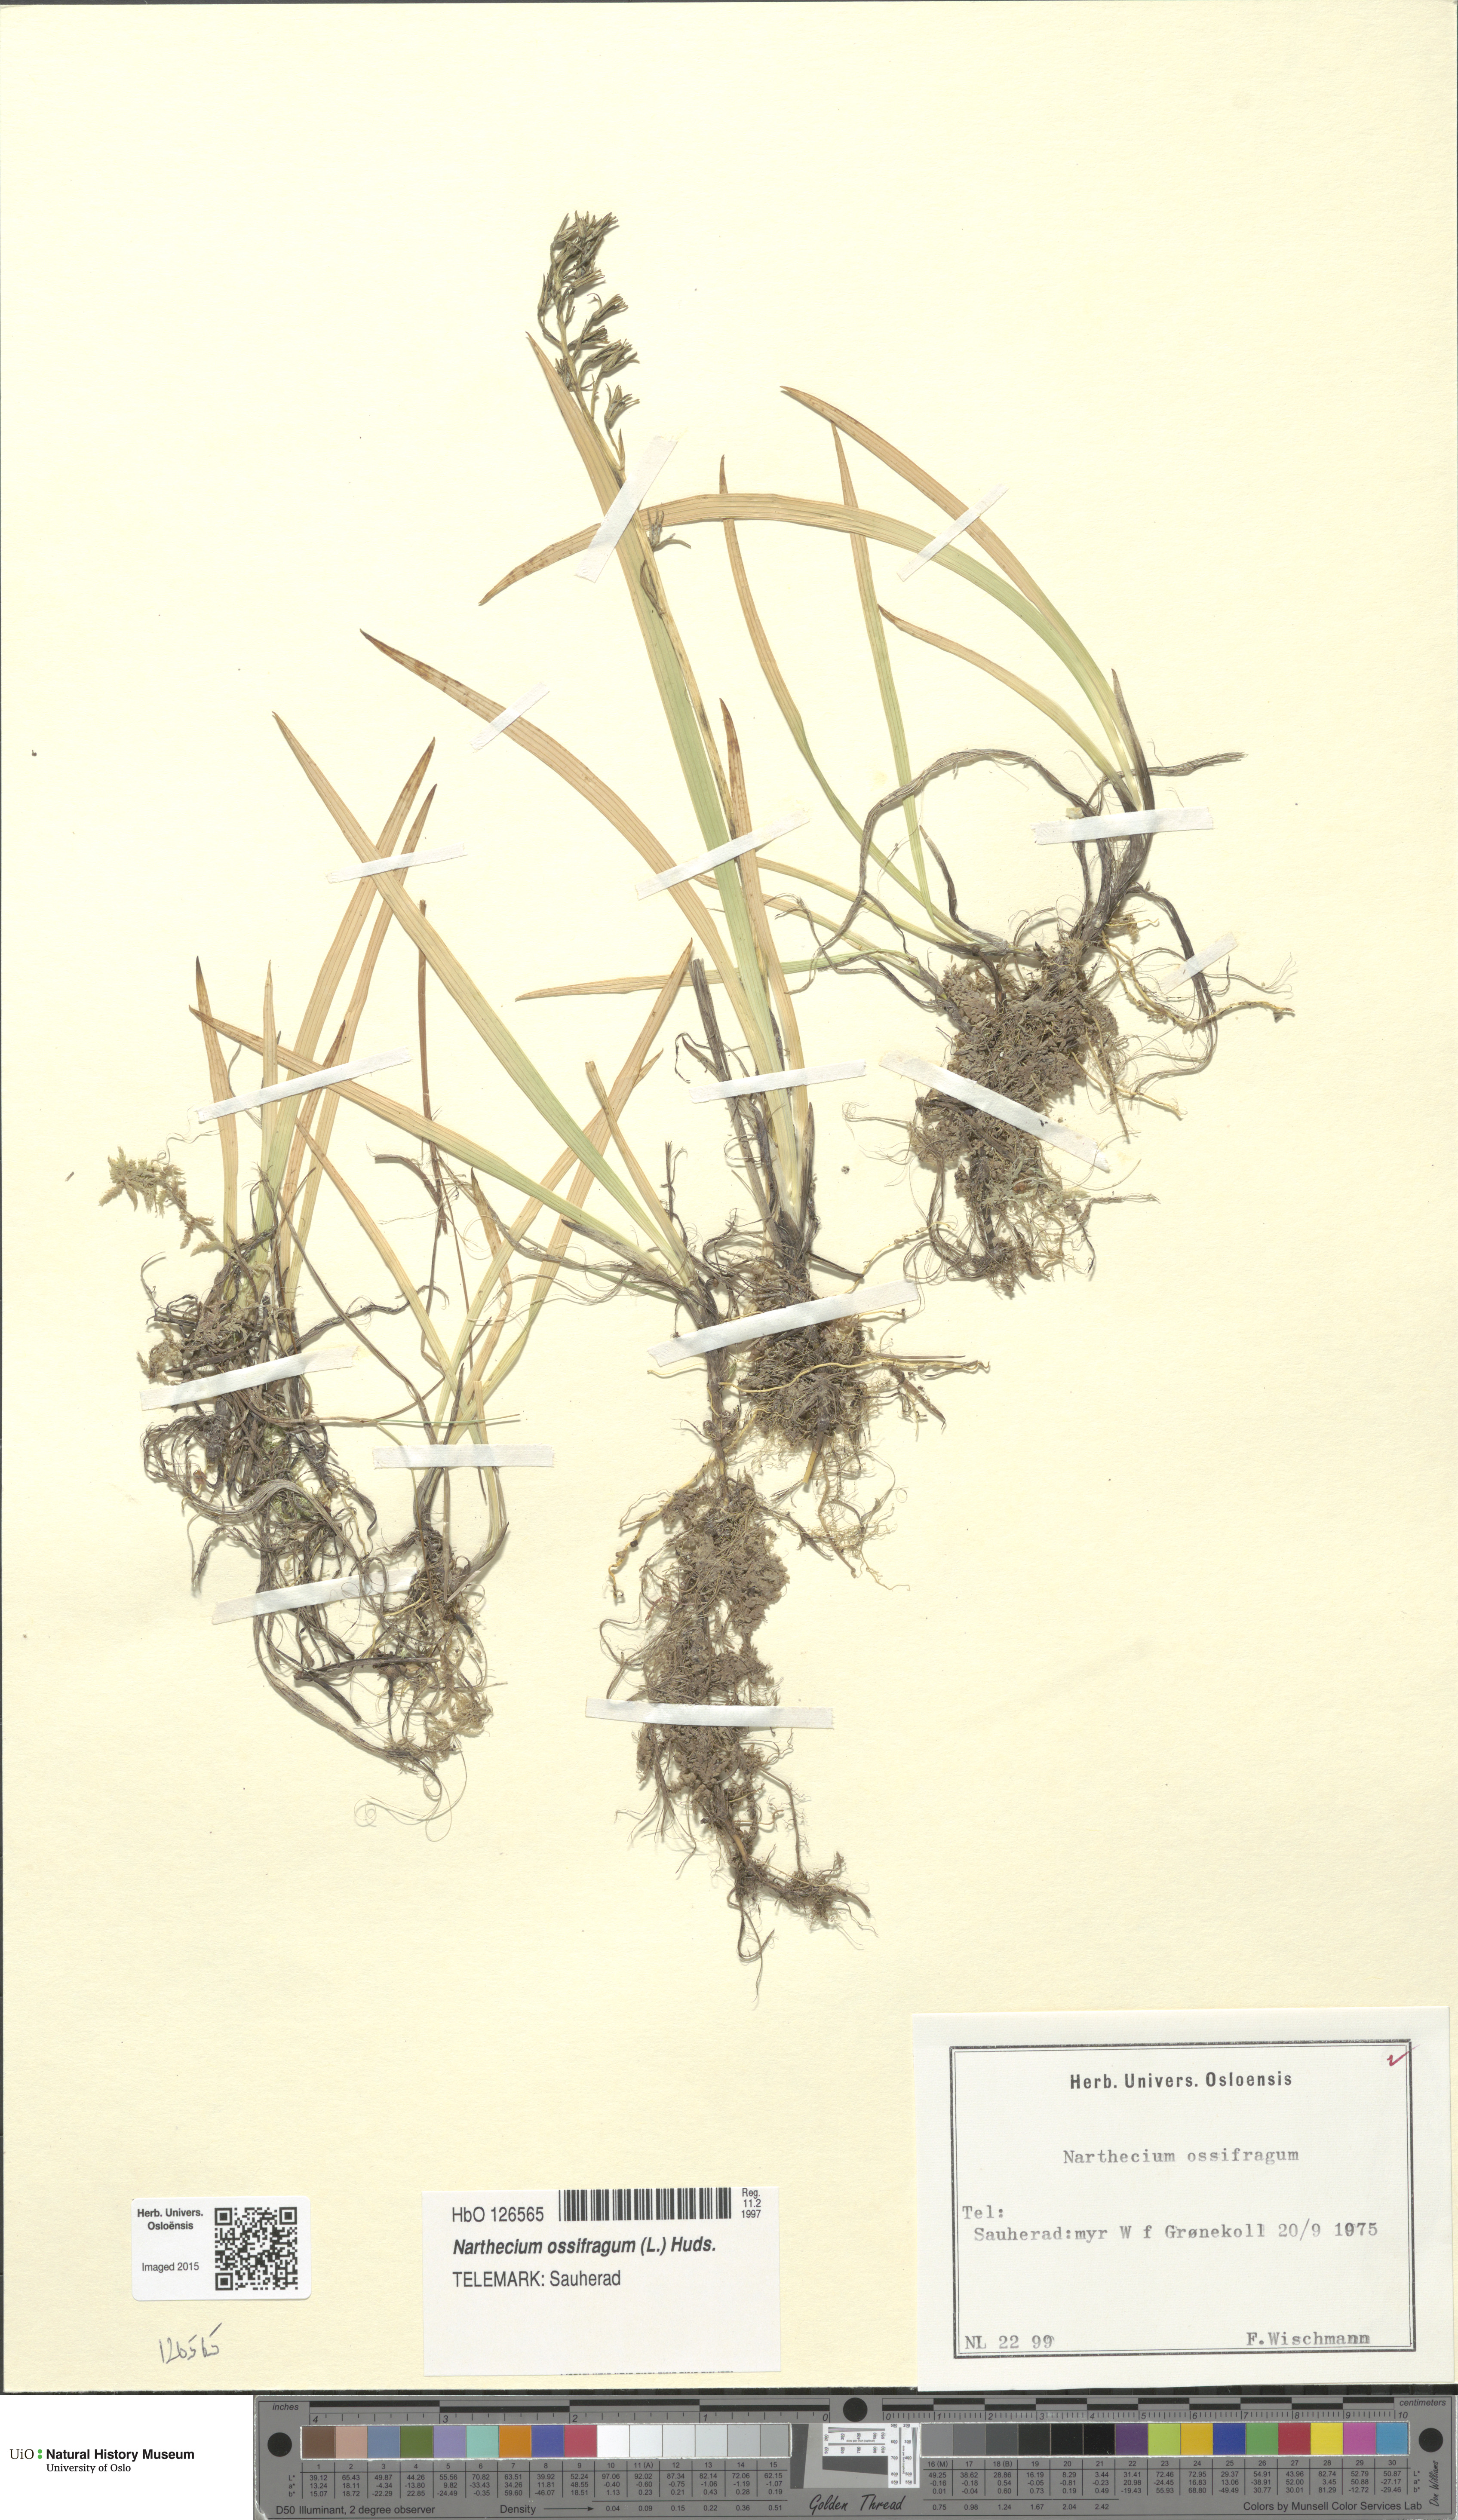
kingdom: Plantae
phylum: Tracheophyta
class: Liliopsida
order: Dioscoreales
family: Nartheciaceae
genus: Narthecium
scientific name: Narthecium ossifragum
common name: Bog asphodel
